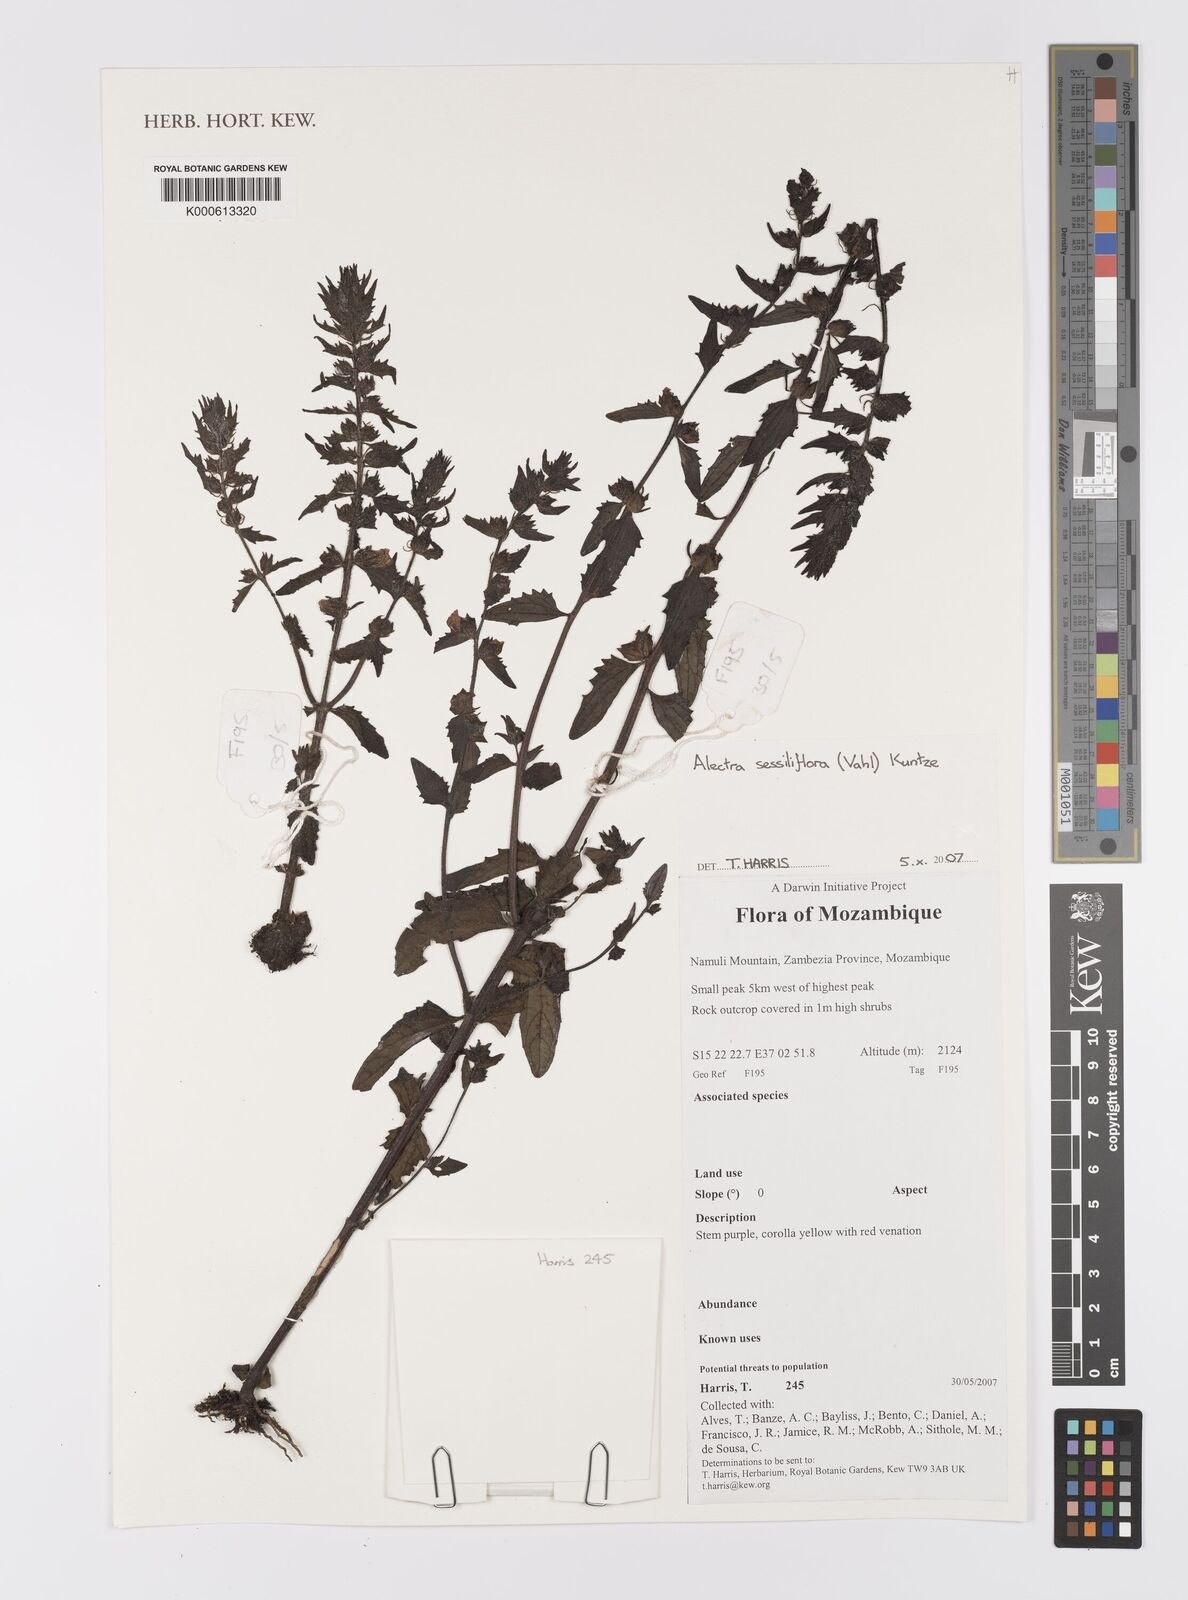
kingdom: Plantae
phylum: Tracheophyta
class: Magnoliopsida
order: Lamiales
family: Orobanchaceae
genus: Alectra
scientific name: Alectra sessiliflora
